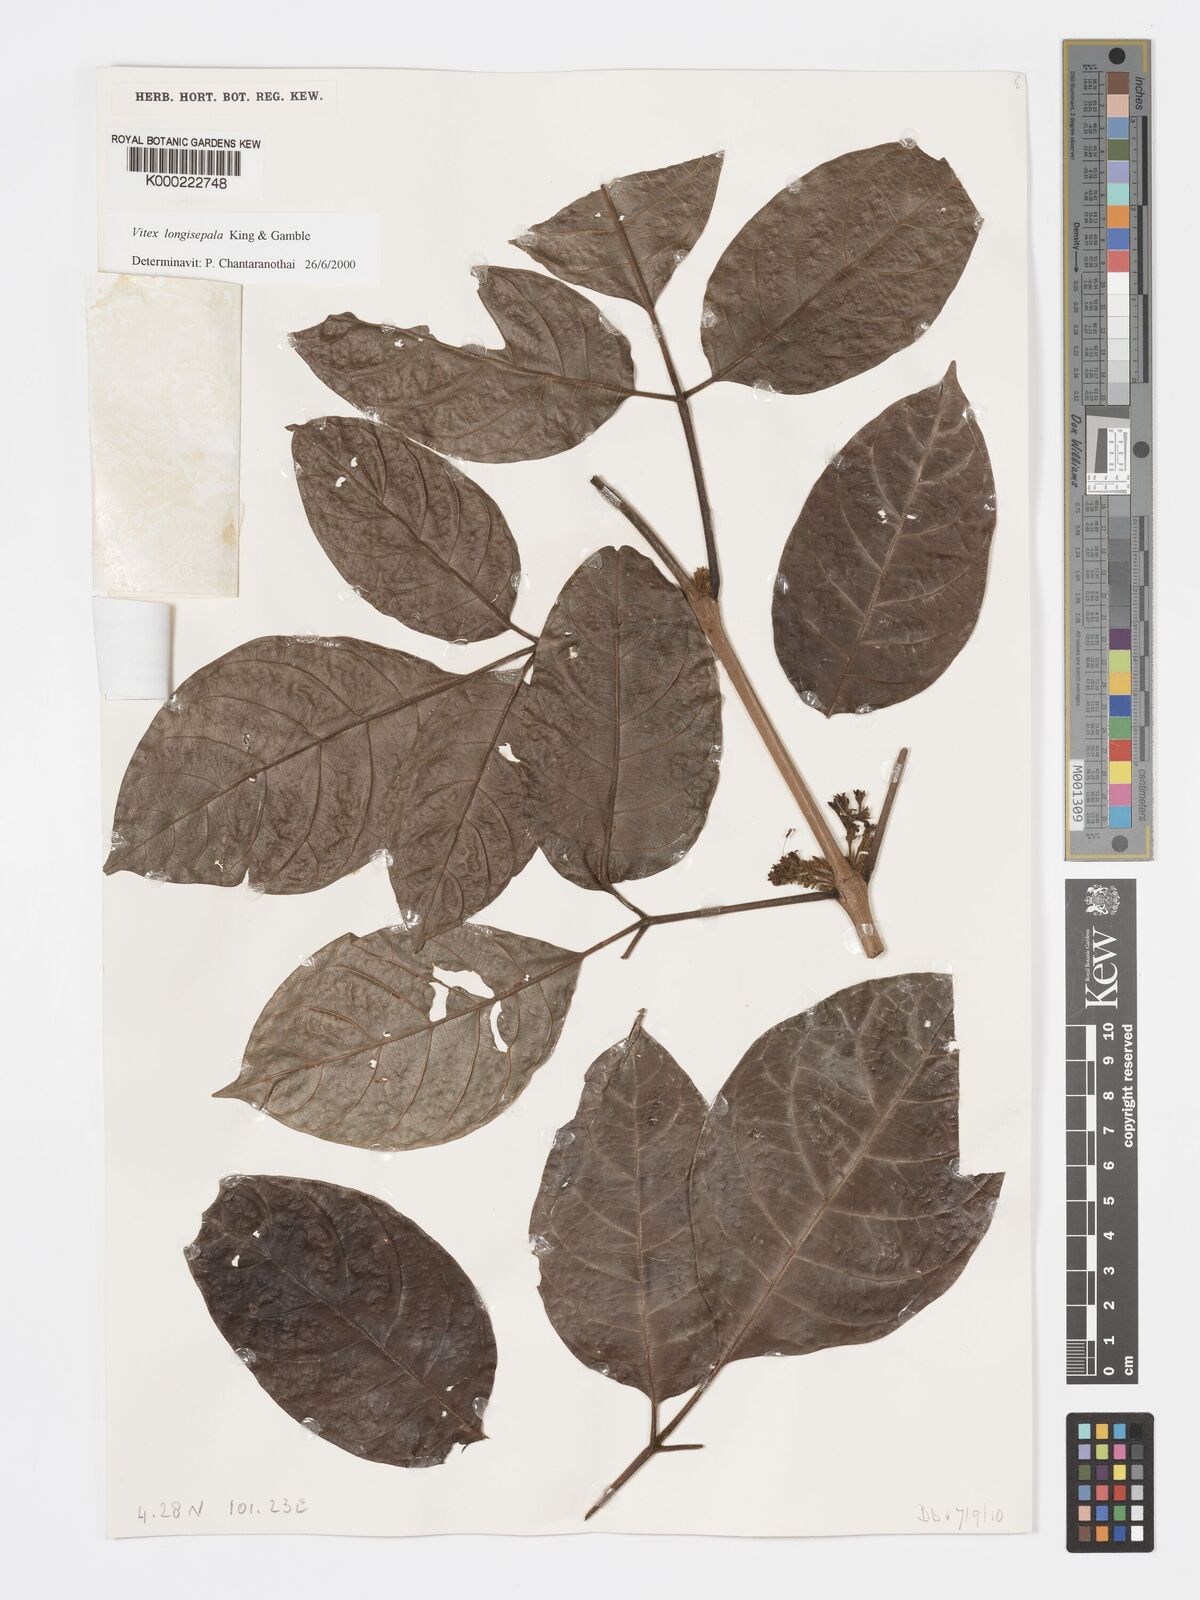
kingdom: Plantae
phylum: Tracheophyta
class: Magnoliopsida
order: Lamiales
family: Lamiaceae
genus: Vitex
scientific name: Vitex millsii
